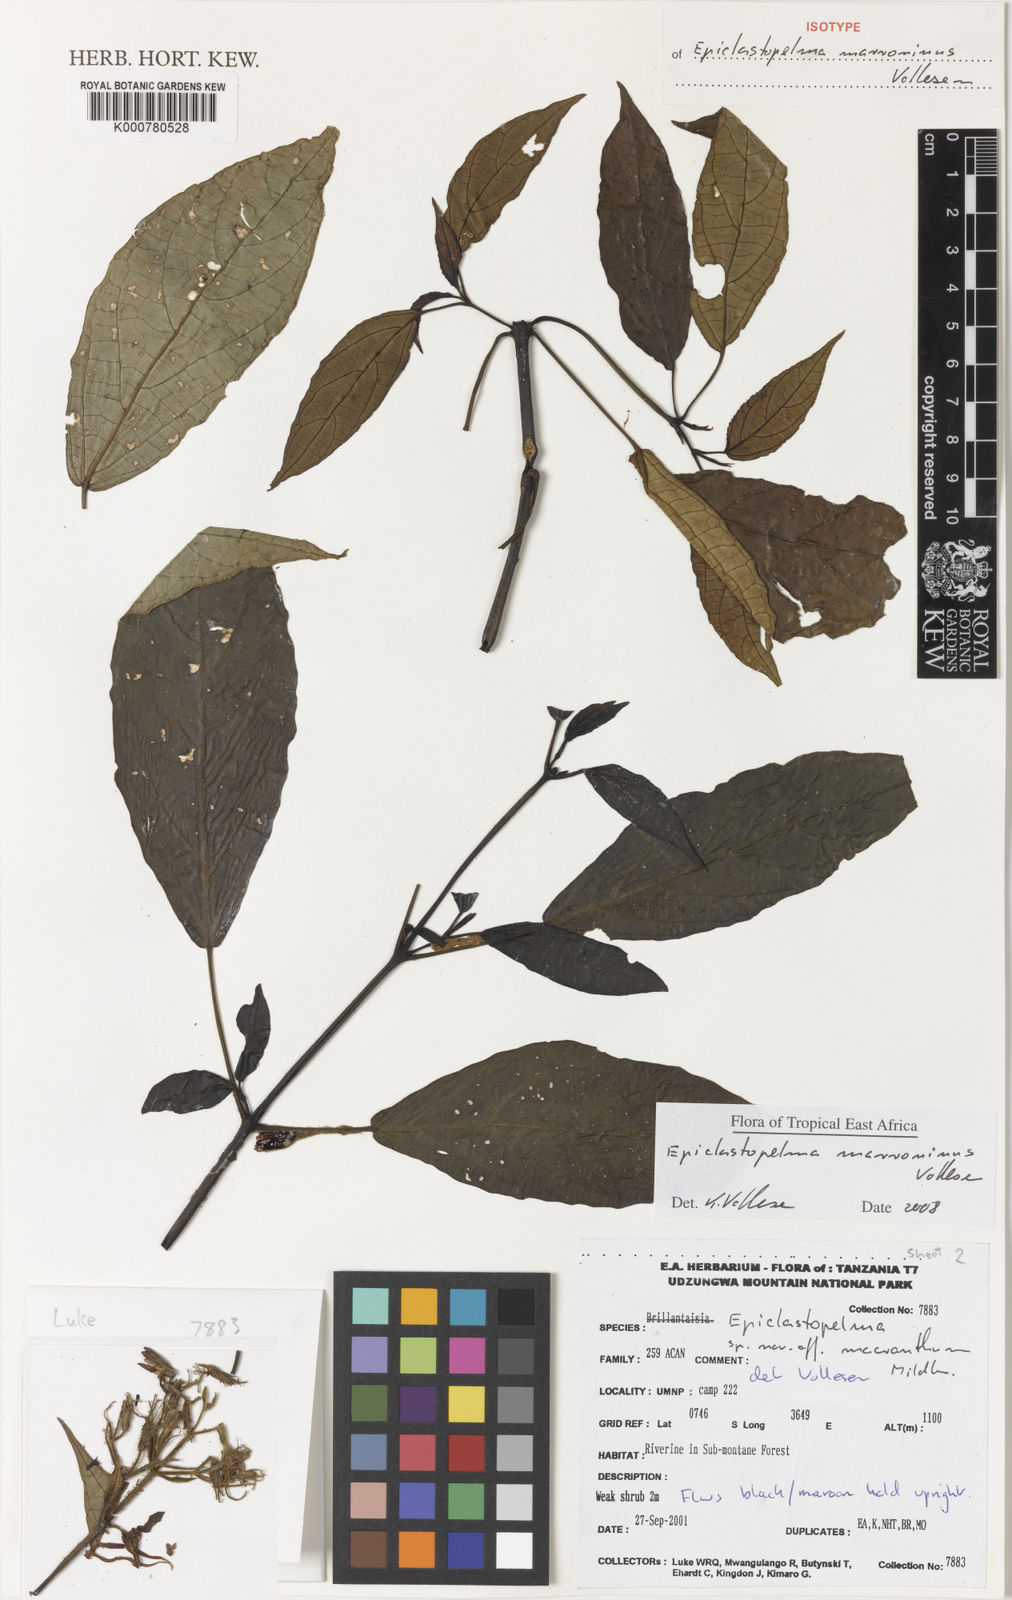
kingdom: Plantae
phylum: Tracheophyta
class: Magnoliopsida
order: Lamiales
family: Acanthaceae
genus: Mimulopsis
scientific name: Mimulopsis marronina
